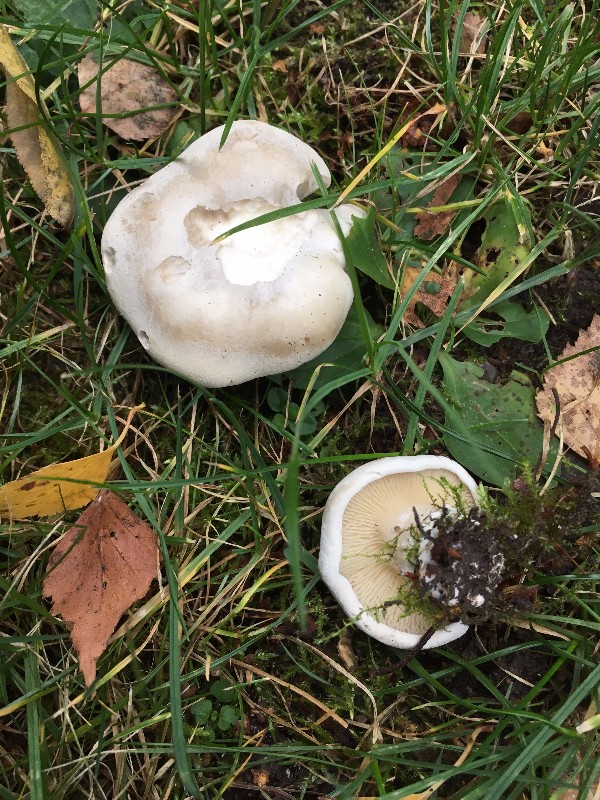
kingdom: Fungi
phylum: Basidiomycota
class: Agaricomycetes
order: Agaricales
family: Entolomataceae
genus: Clitopilus
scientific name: Clitopilus prunulus
